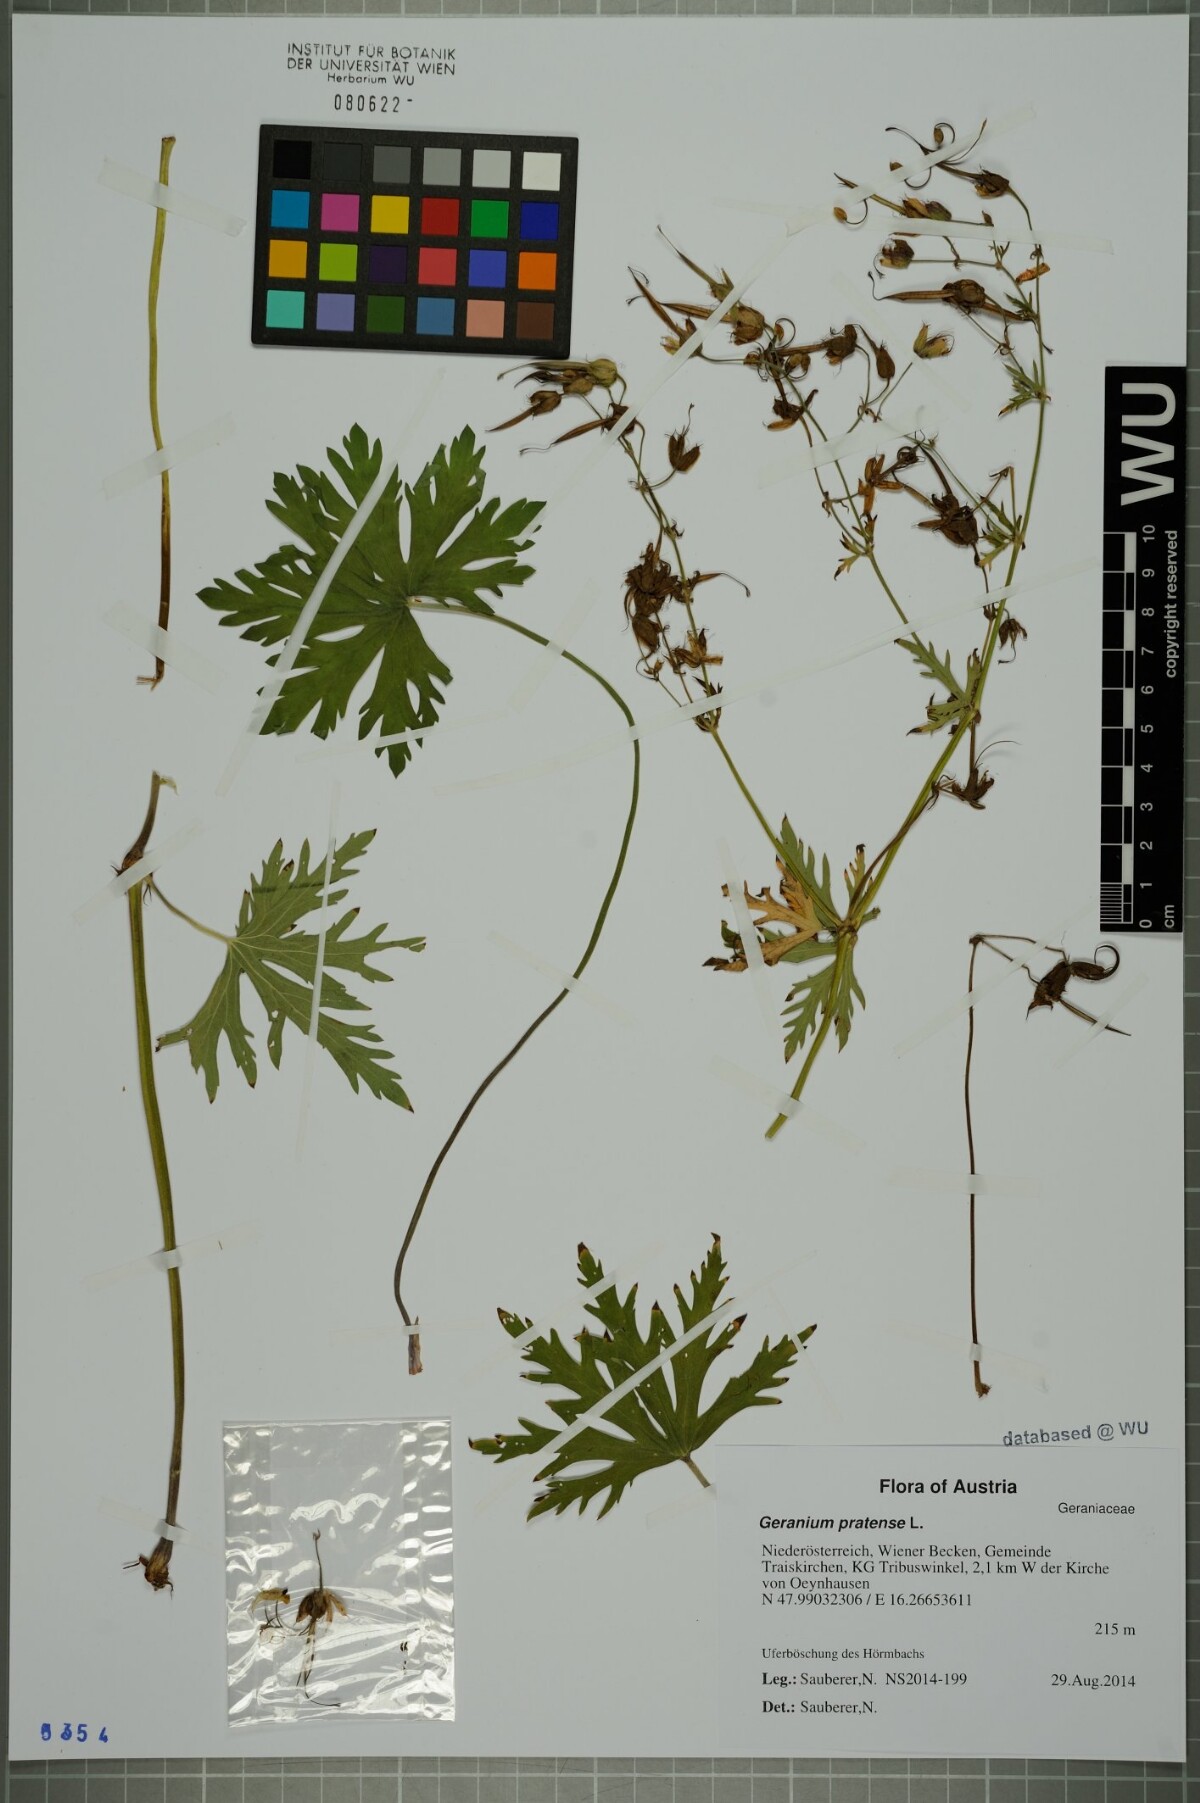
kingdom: Plantae
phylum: Tracheophyta
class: Magnoliopsida
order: Geraniales
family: Geraniaceae
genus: Geranium
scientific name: Geranium pratense
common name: Meadow crane's-bill
